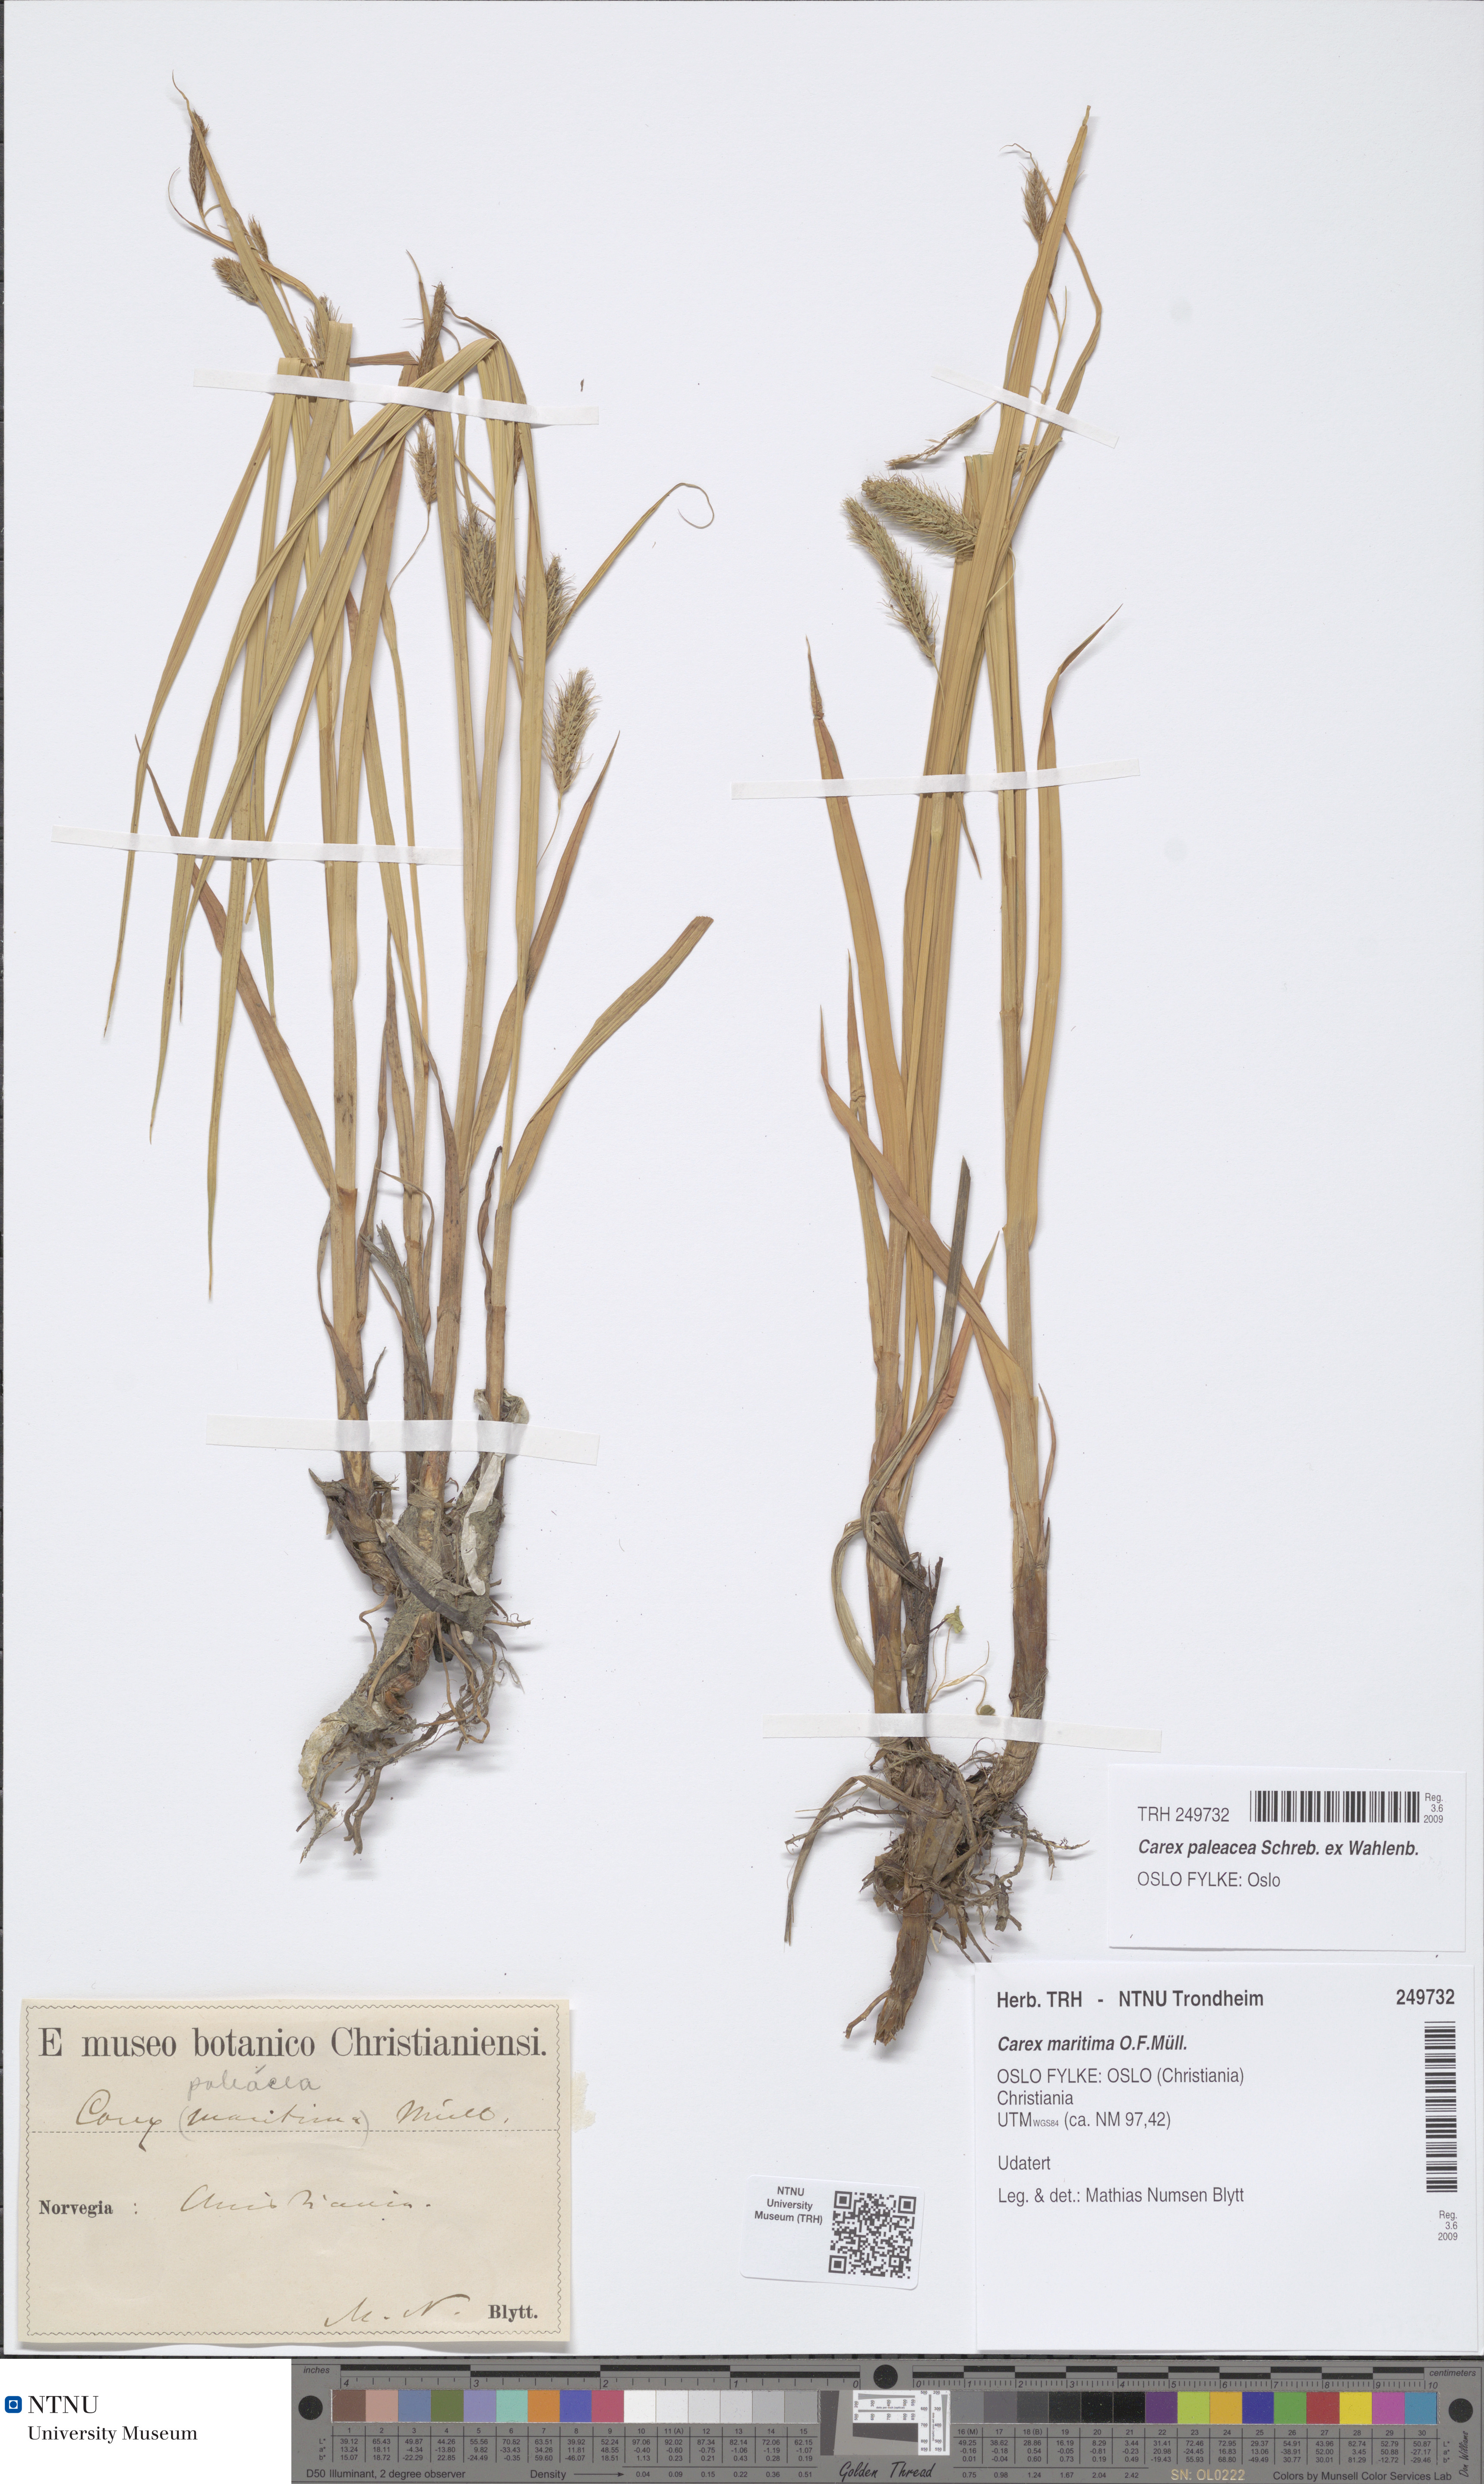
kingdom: Plantae
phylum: Tracheophyta
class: Liliopsida
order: Poales
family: Cyperaceae
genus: Carex
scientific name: Carex paleacea
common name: Chaffy sedge
